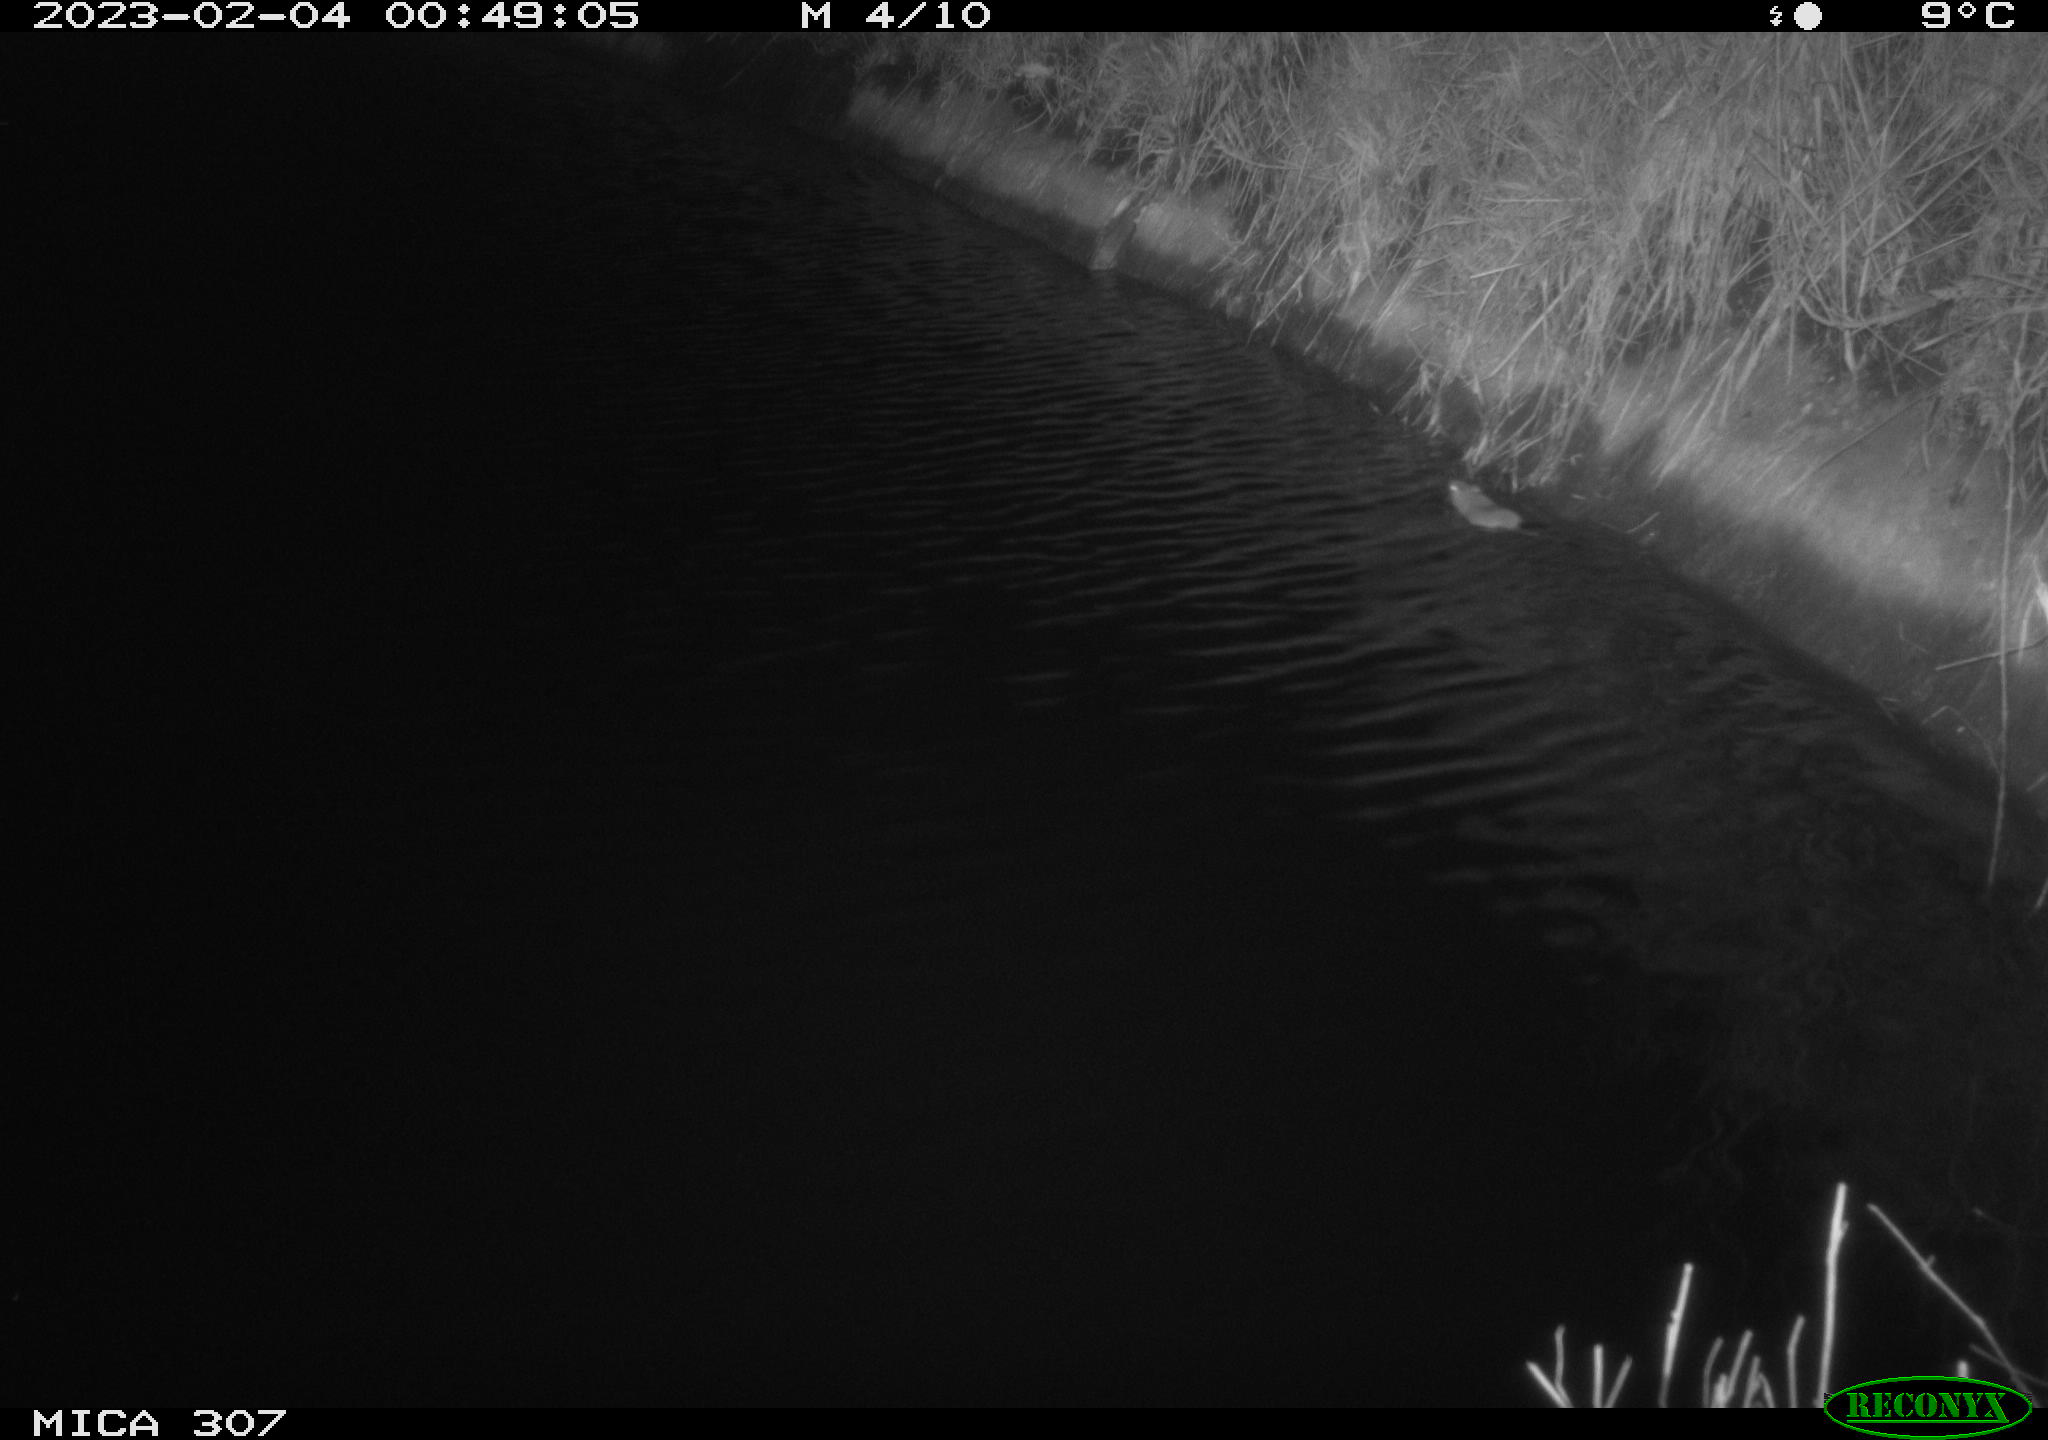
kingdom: Animalia
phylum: Chordata
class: Mammalia
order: Rodentia
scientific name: Rodentia
